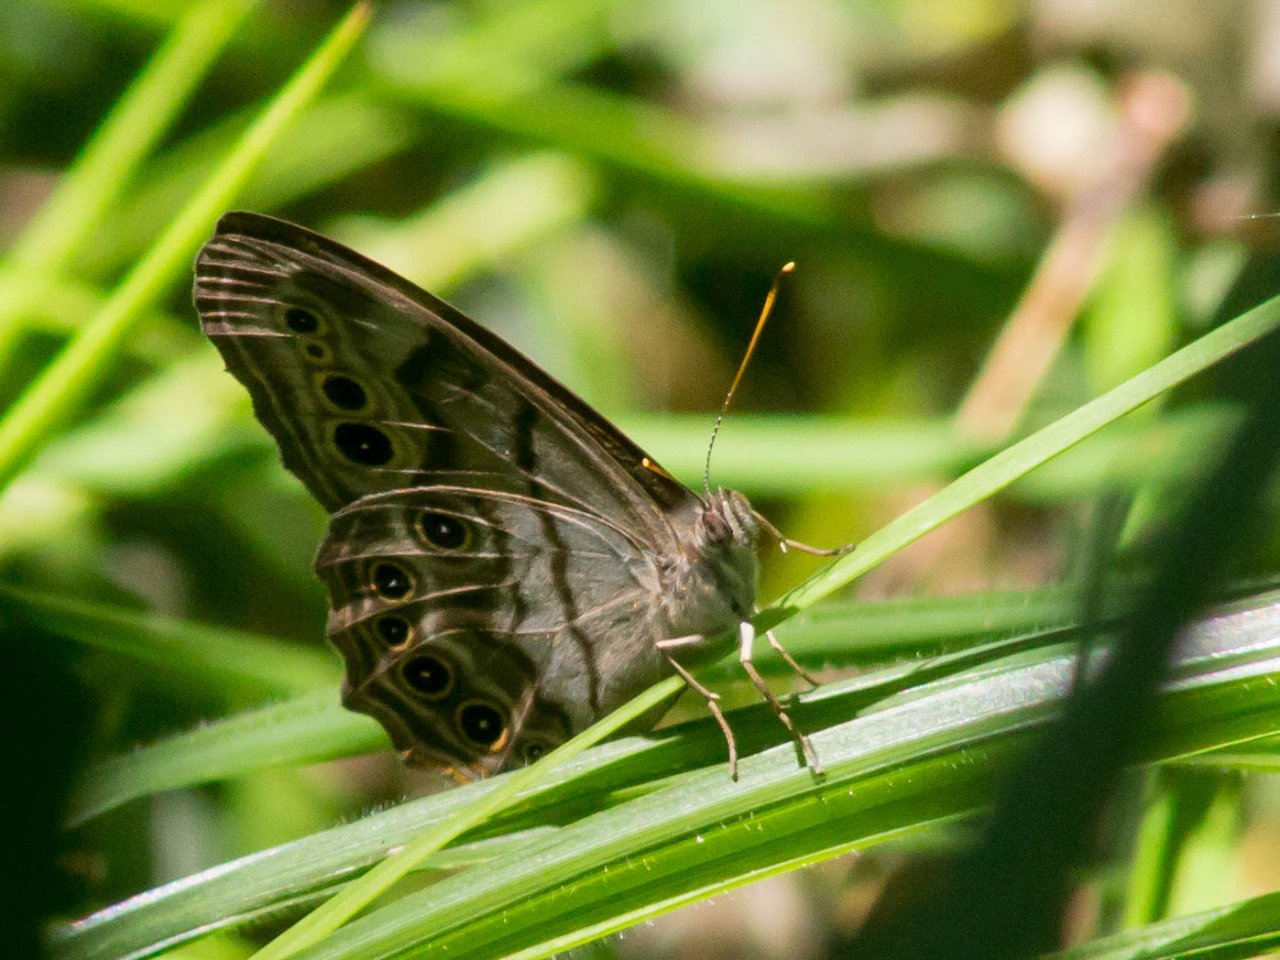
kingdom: Animalia
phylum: Arthropoda
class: Insecta
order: Lepidoptera
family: Nymphalidae
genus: Lethe
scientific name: Lethe anthedon
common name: Northern Pearly-Eye
